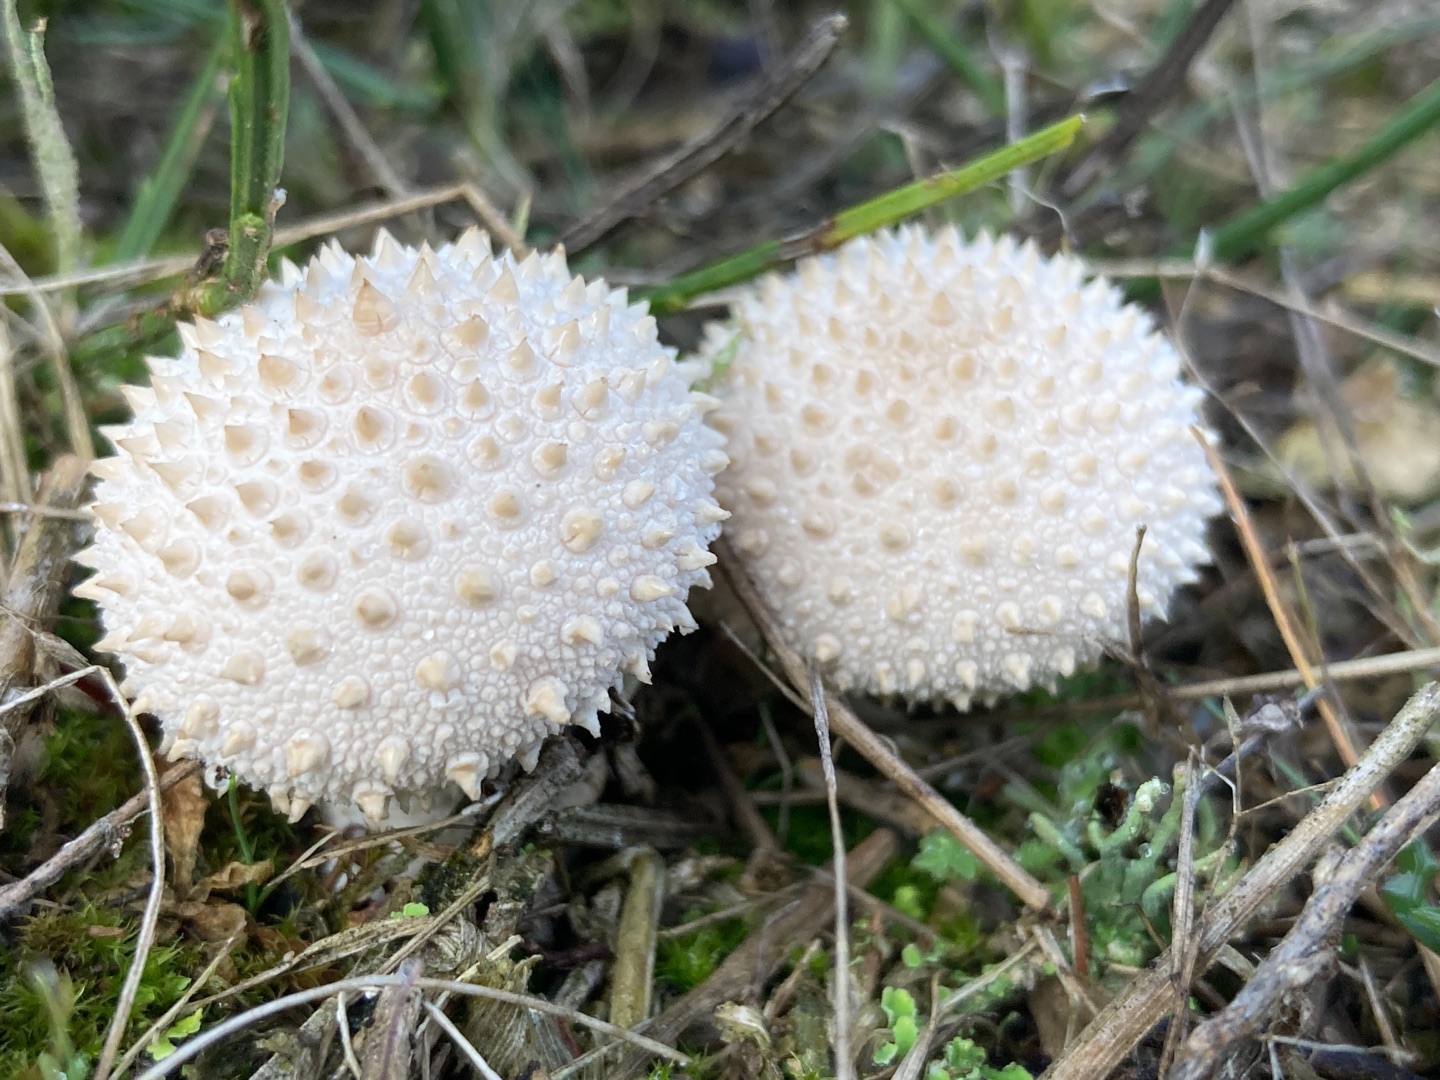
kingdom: Fungi
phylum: Basidiomycota
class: Agaricomycetes
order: Agaricales
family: Lycoperdaceae
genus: Lycoperdon
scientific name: Lycoperdon perlatum
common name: Krystal-støvbold
